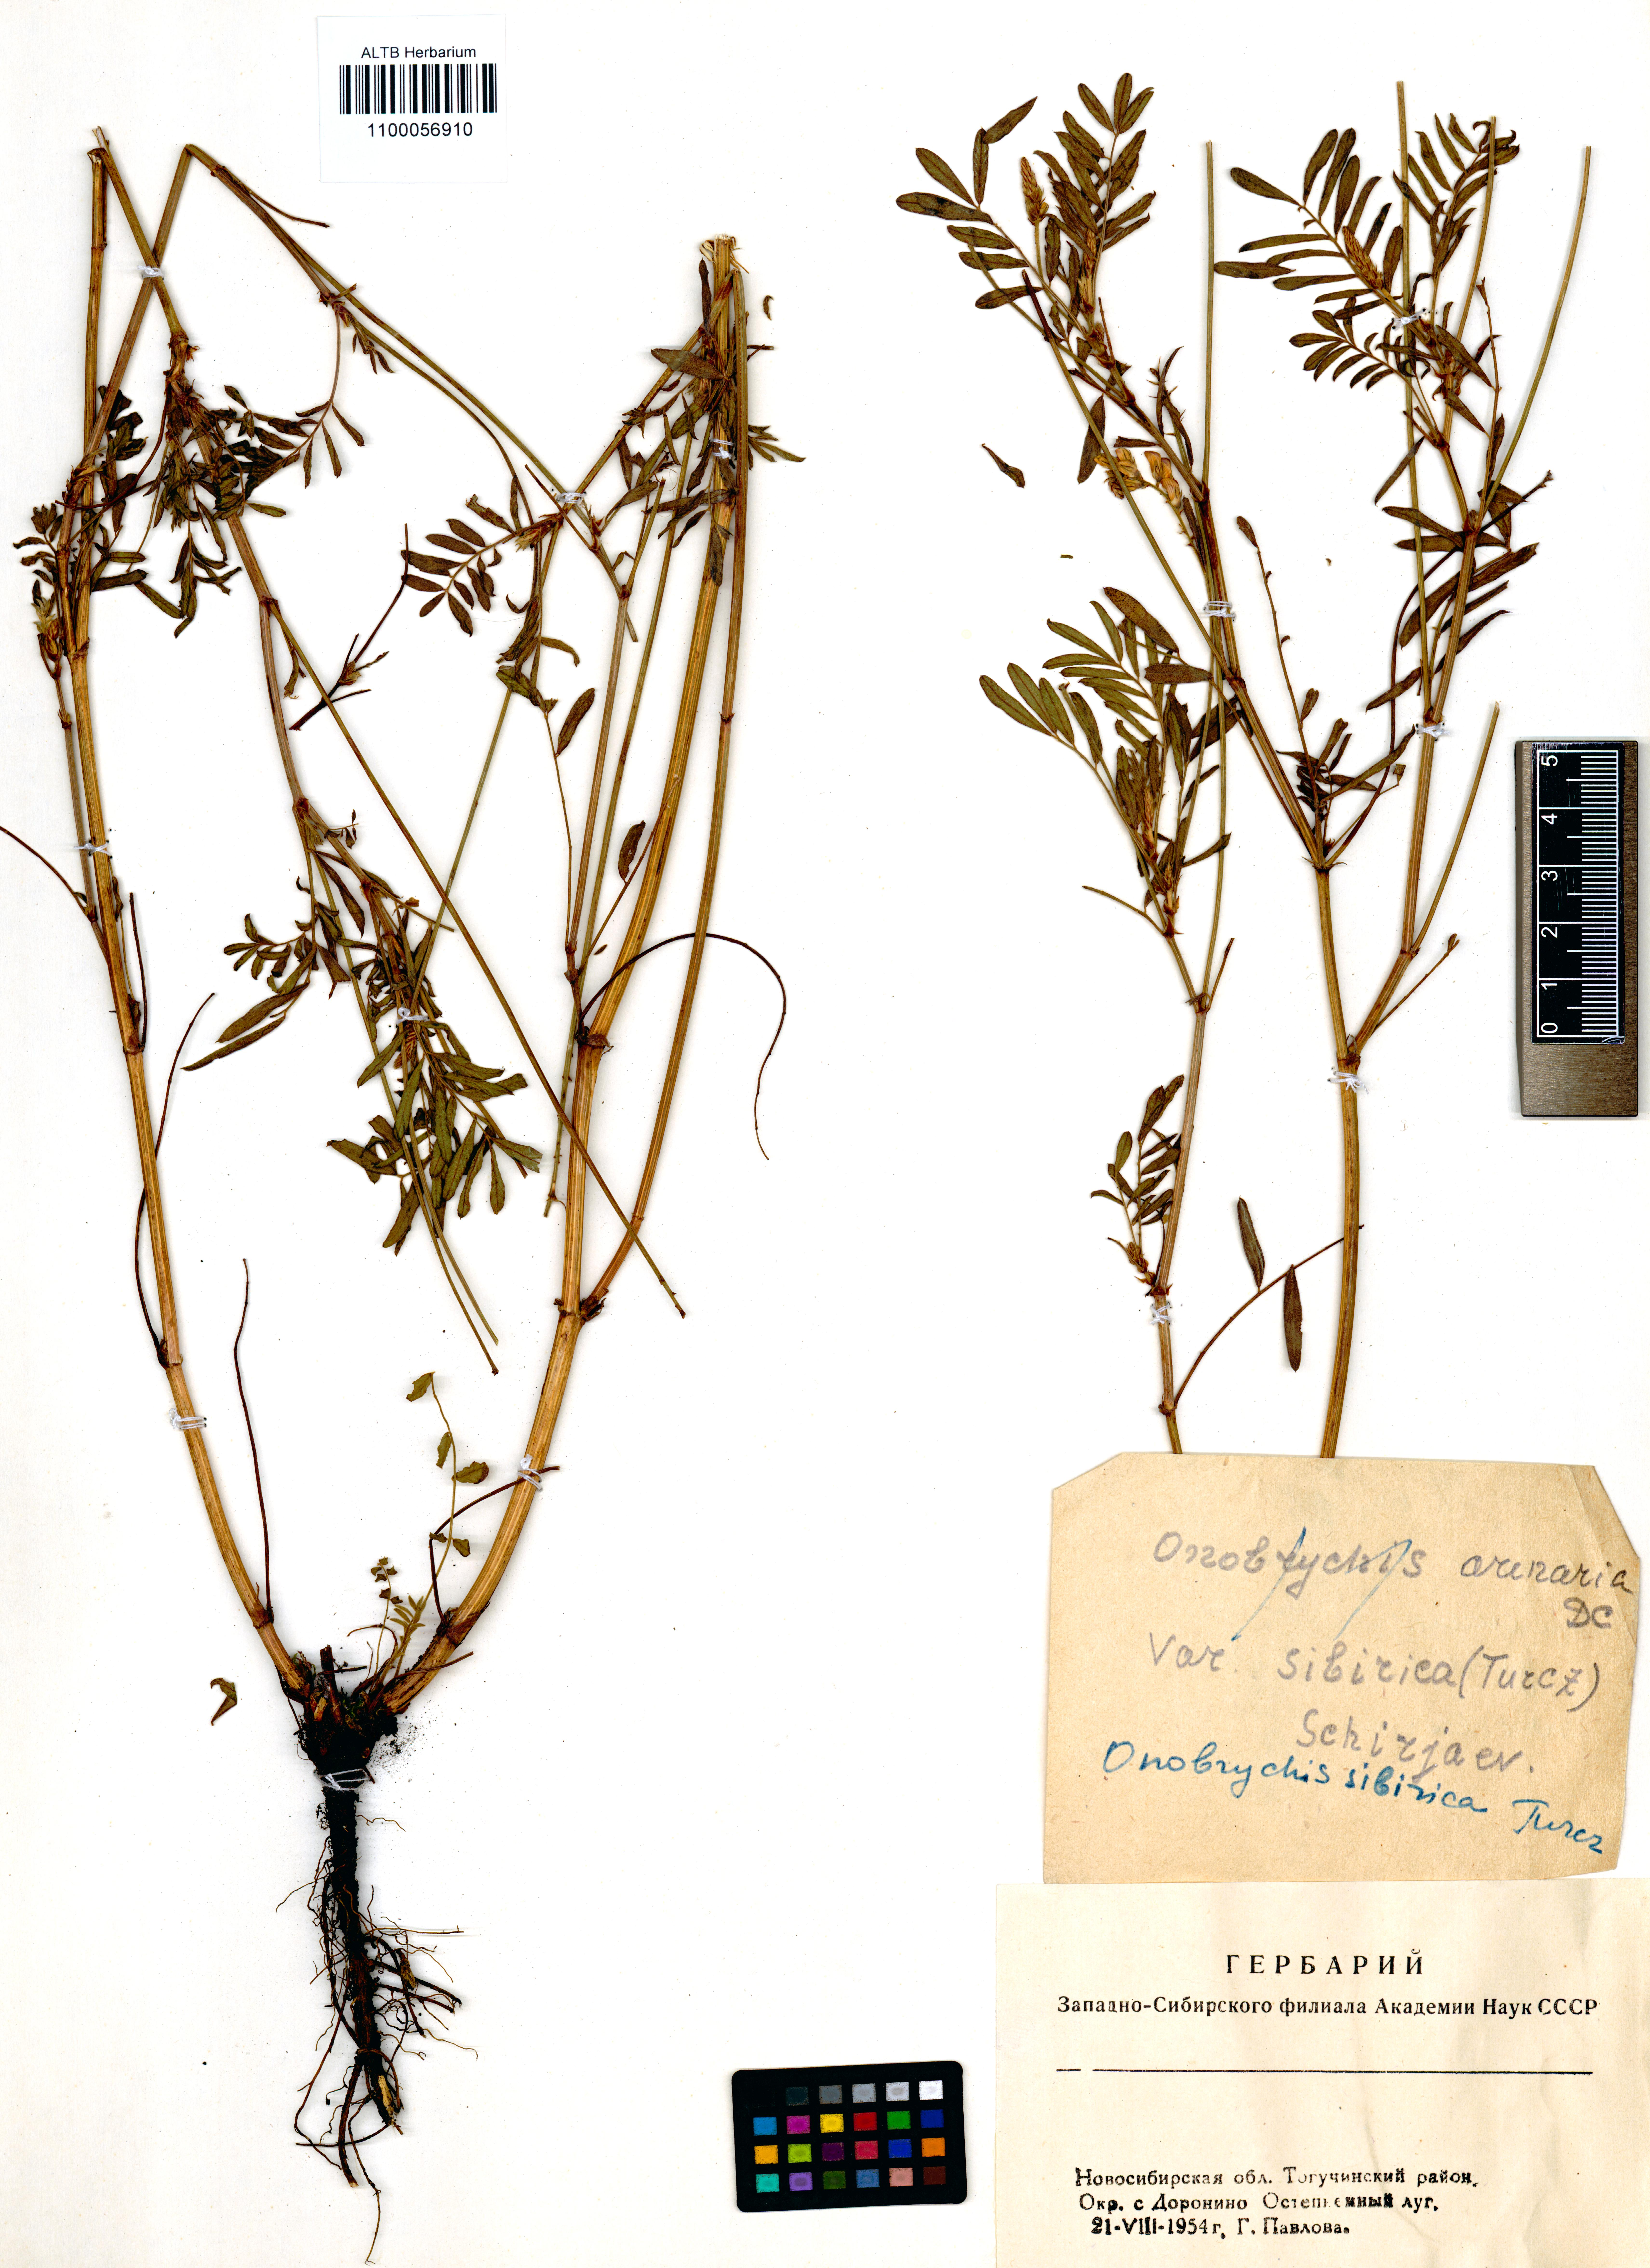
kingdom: Plantae
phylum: Tracheophyta
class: Magnoliopsida
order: Fabales
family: Fabaceae
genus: Onobrychis
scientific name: Onobrychis arenaria
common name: Sand esparcet
